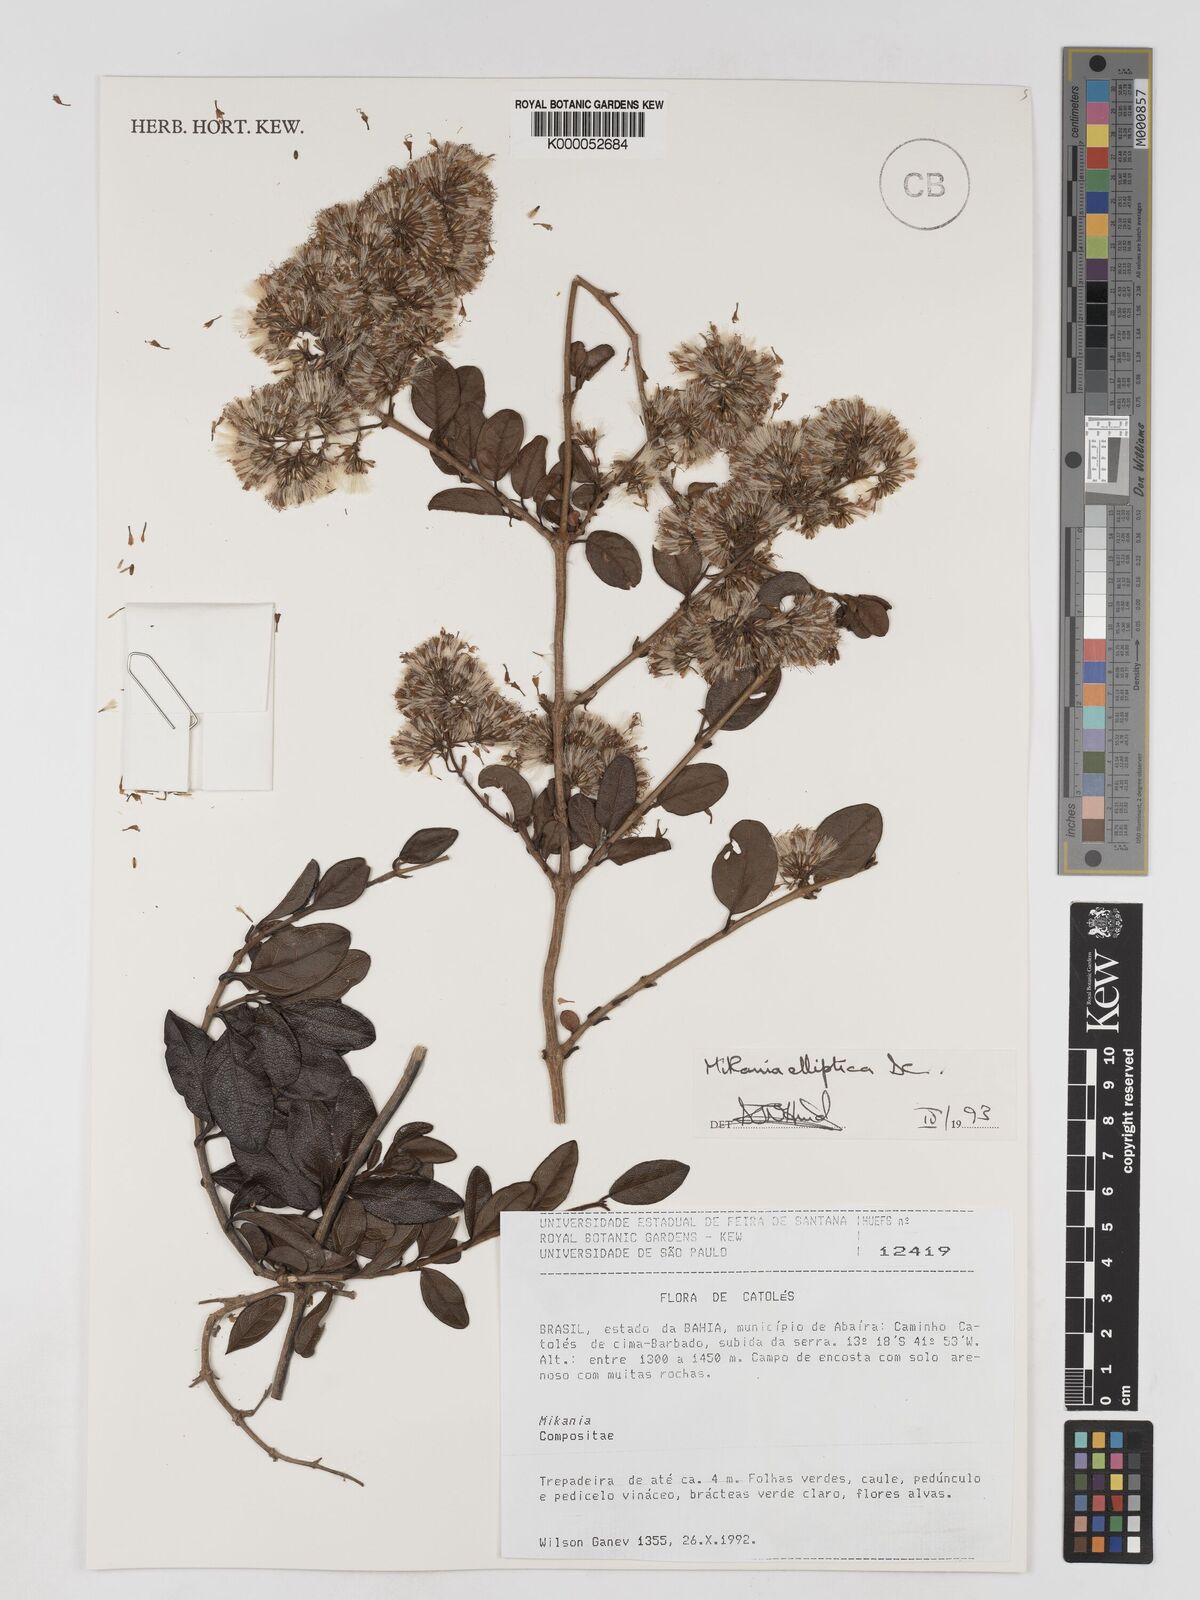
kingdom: Plantae
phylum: Tracheophyta
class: Magnoliopsida
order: Asterales
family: Asteraceae
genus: Mikania
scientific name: Mikania elliptica
